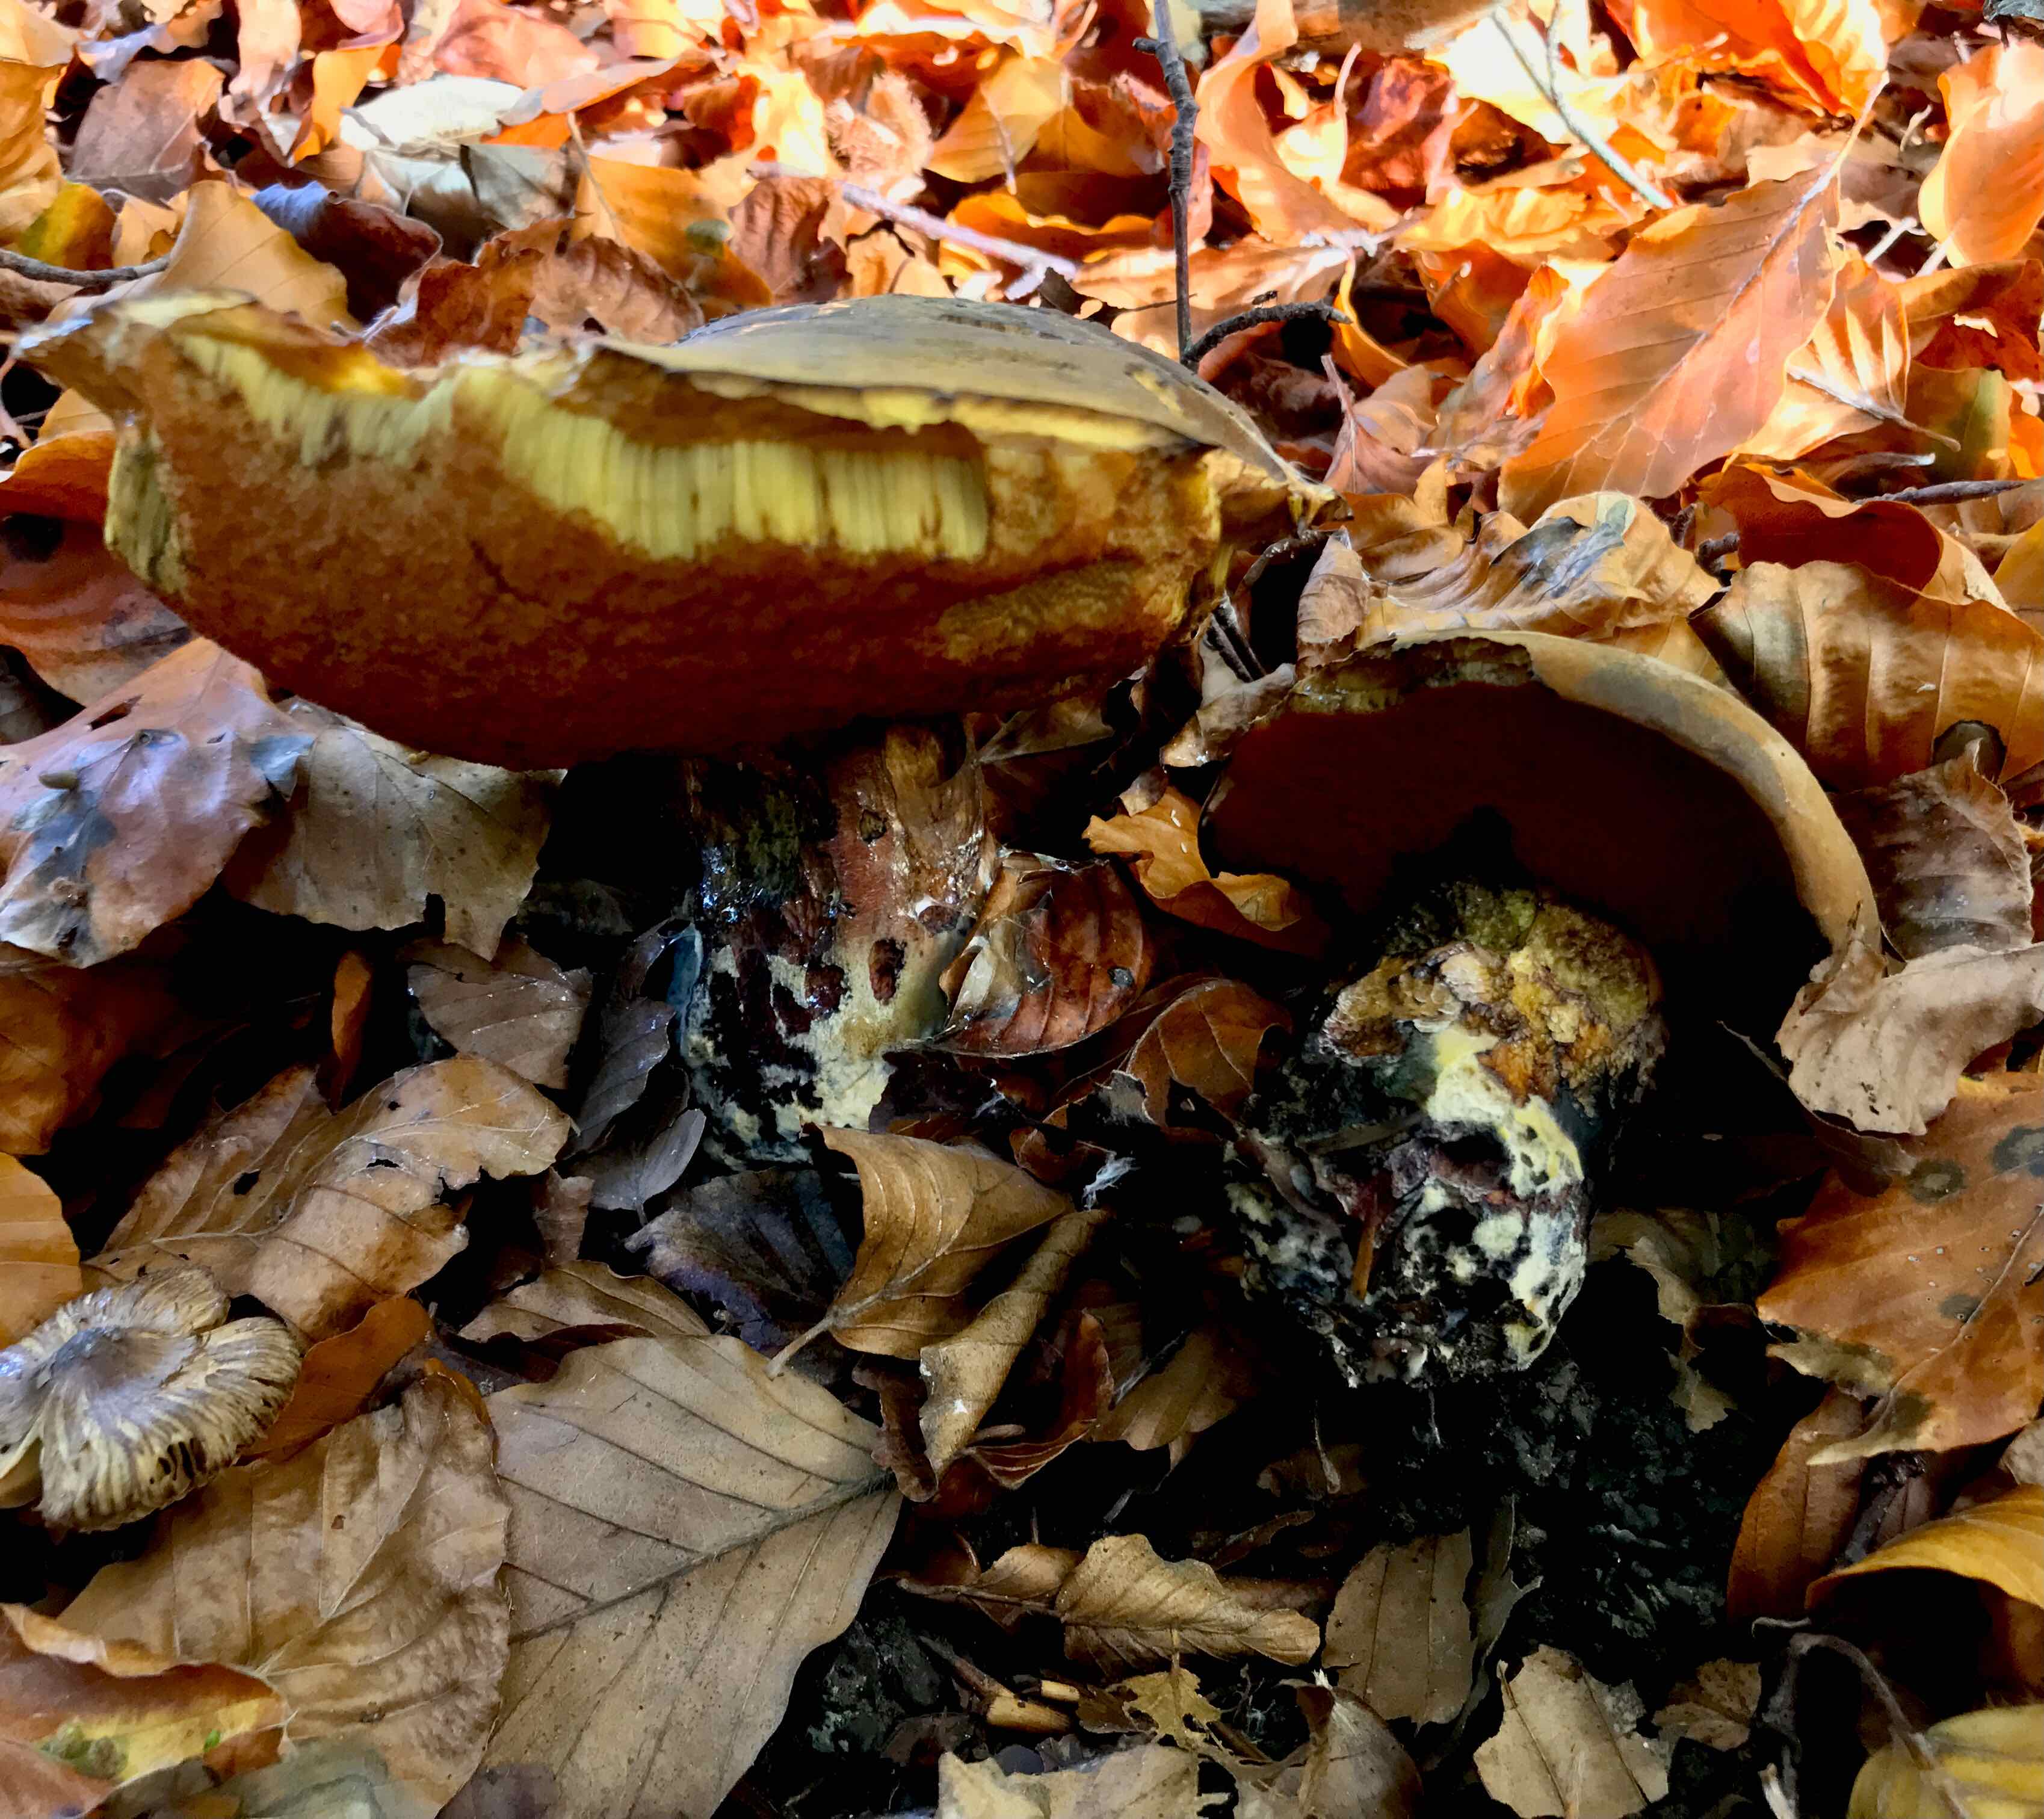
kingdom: Fungi
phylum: Basidiomycota
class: Agaricomycetes
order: Boletales
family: Boletaceae
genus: Neoboletus
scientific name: Neoboletus erythropus
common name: punktstokket indigorørhat
